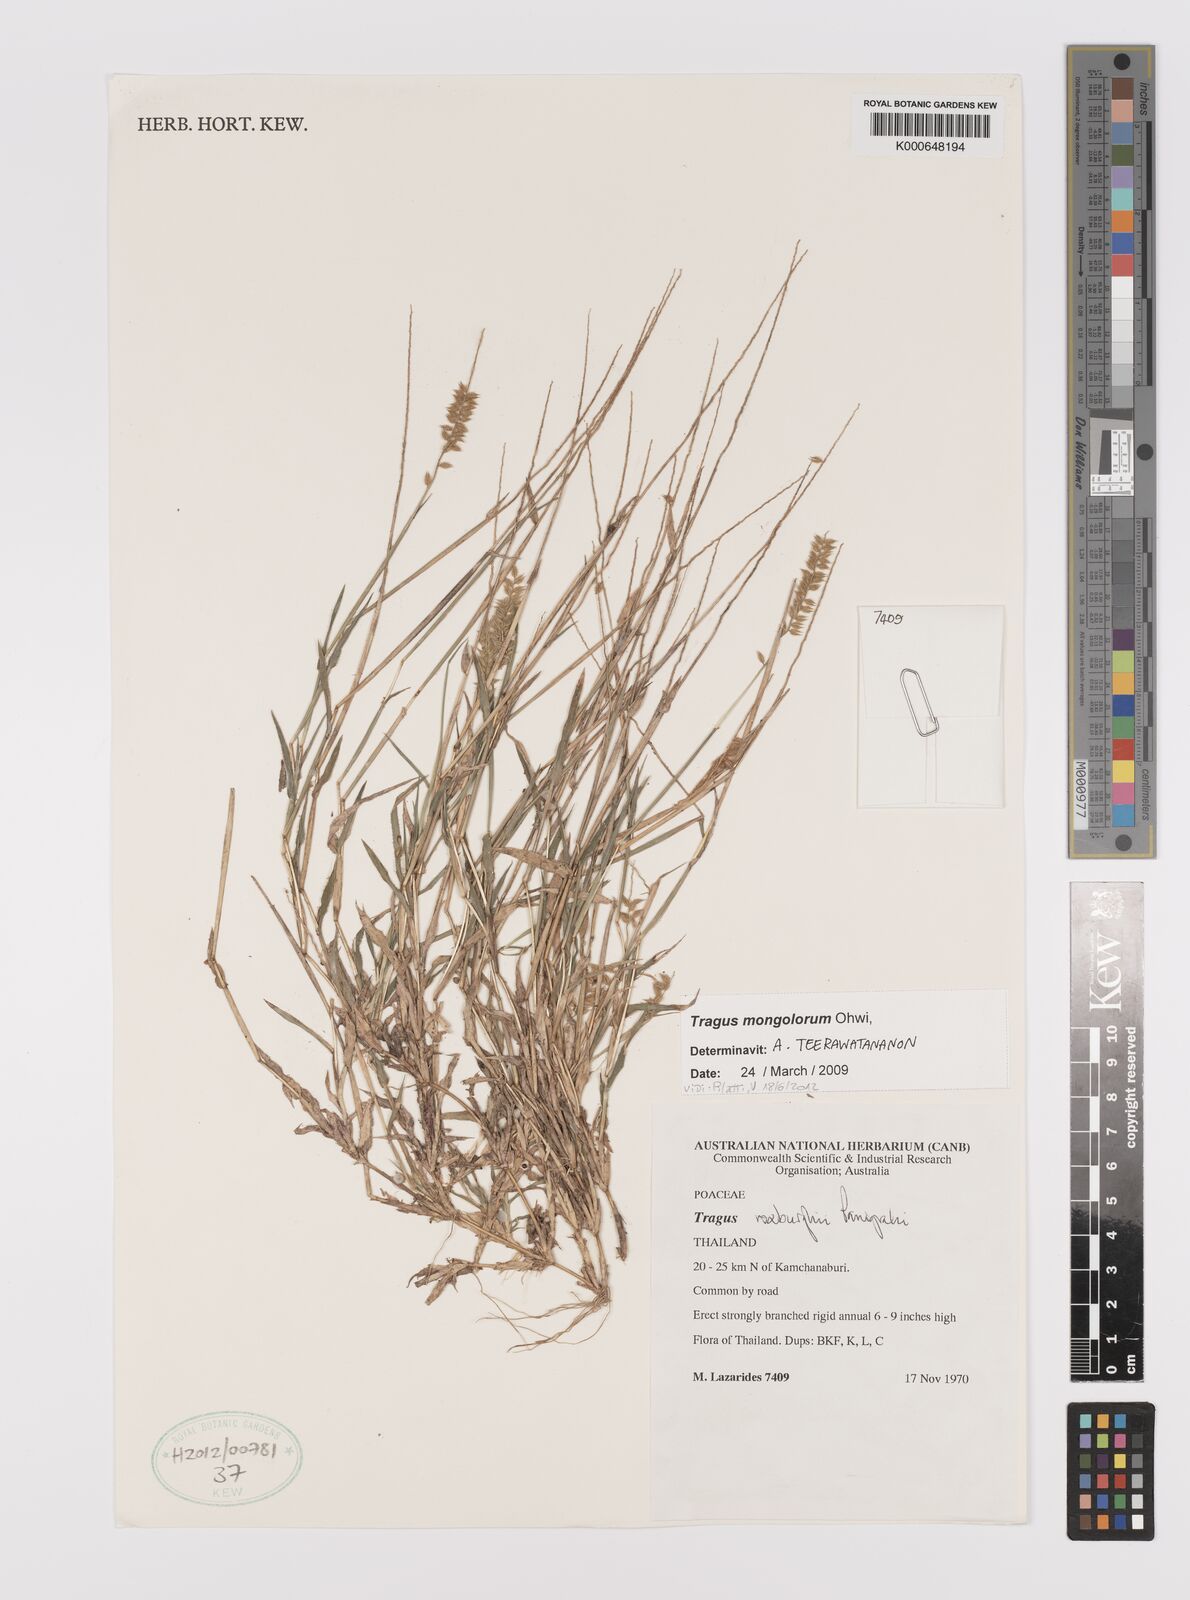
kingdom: Plantae
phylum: Tracheophyta
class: Liliopsida
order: Poales
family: Poaceae
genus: Tragus
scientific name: Tragus mongolorum
